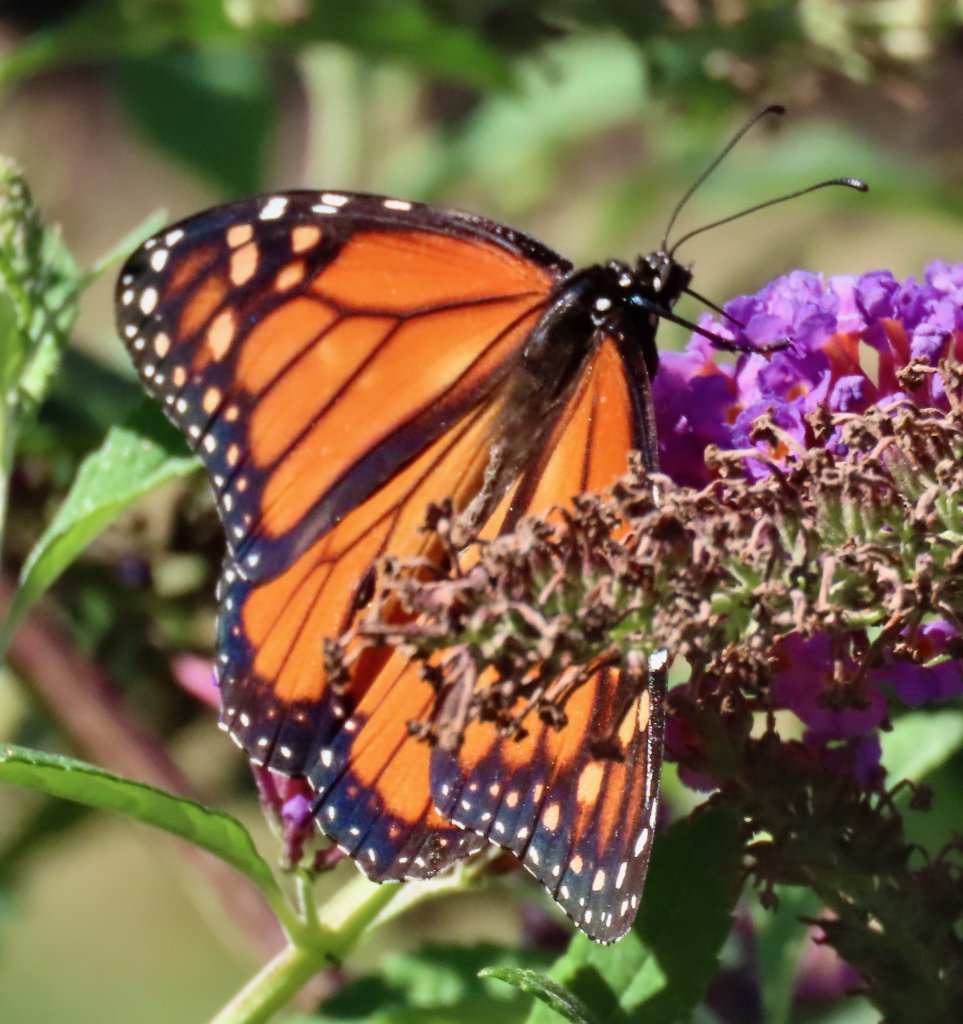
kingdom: Animalia
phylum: Arthropoda
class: Insecta
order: Lepidoptera
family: Nymphalidae
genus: Danaus
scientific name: Danaus plexippus
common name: Monarch
